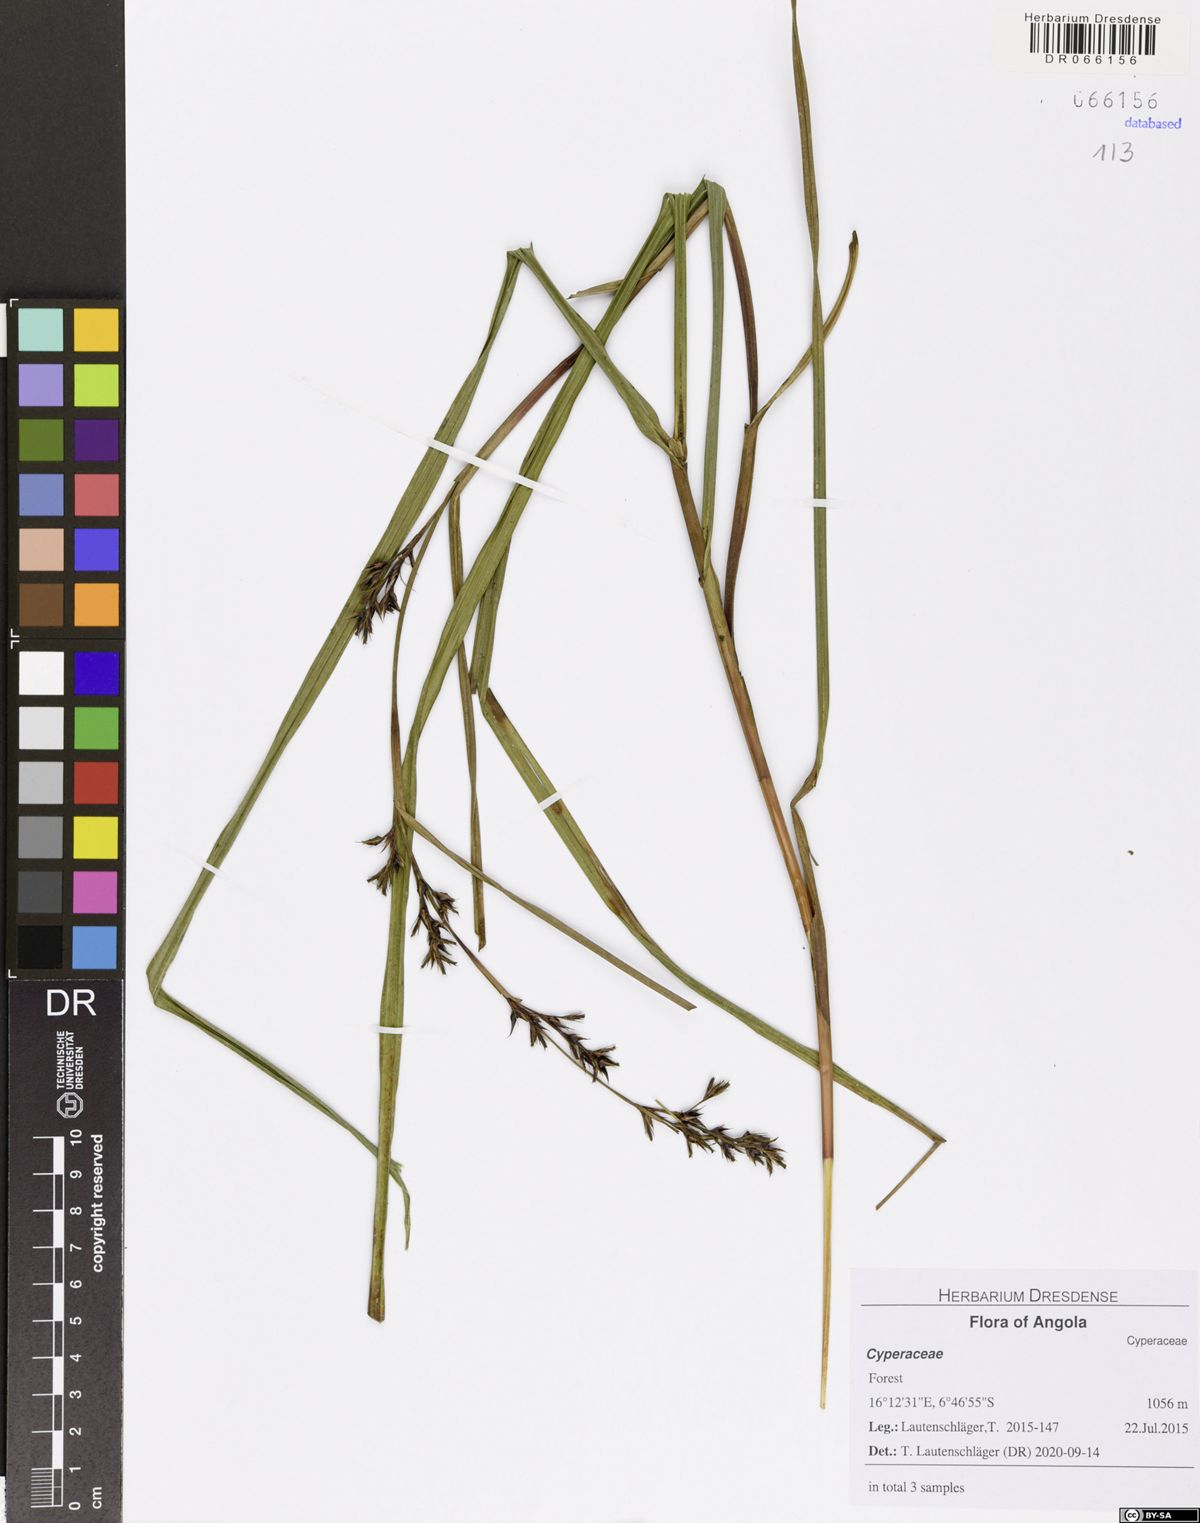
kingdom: Plantae
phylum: Tracheophyta
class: Liliopsida
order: Poales
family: Cyperaceae
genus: Scleria
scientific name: Scleria iostephana
